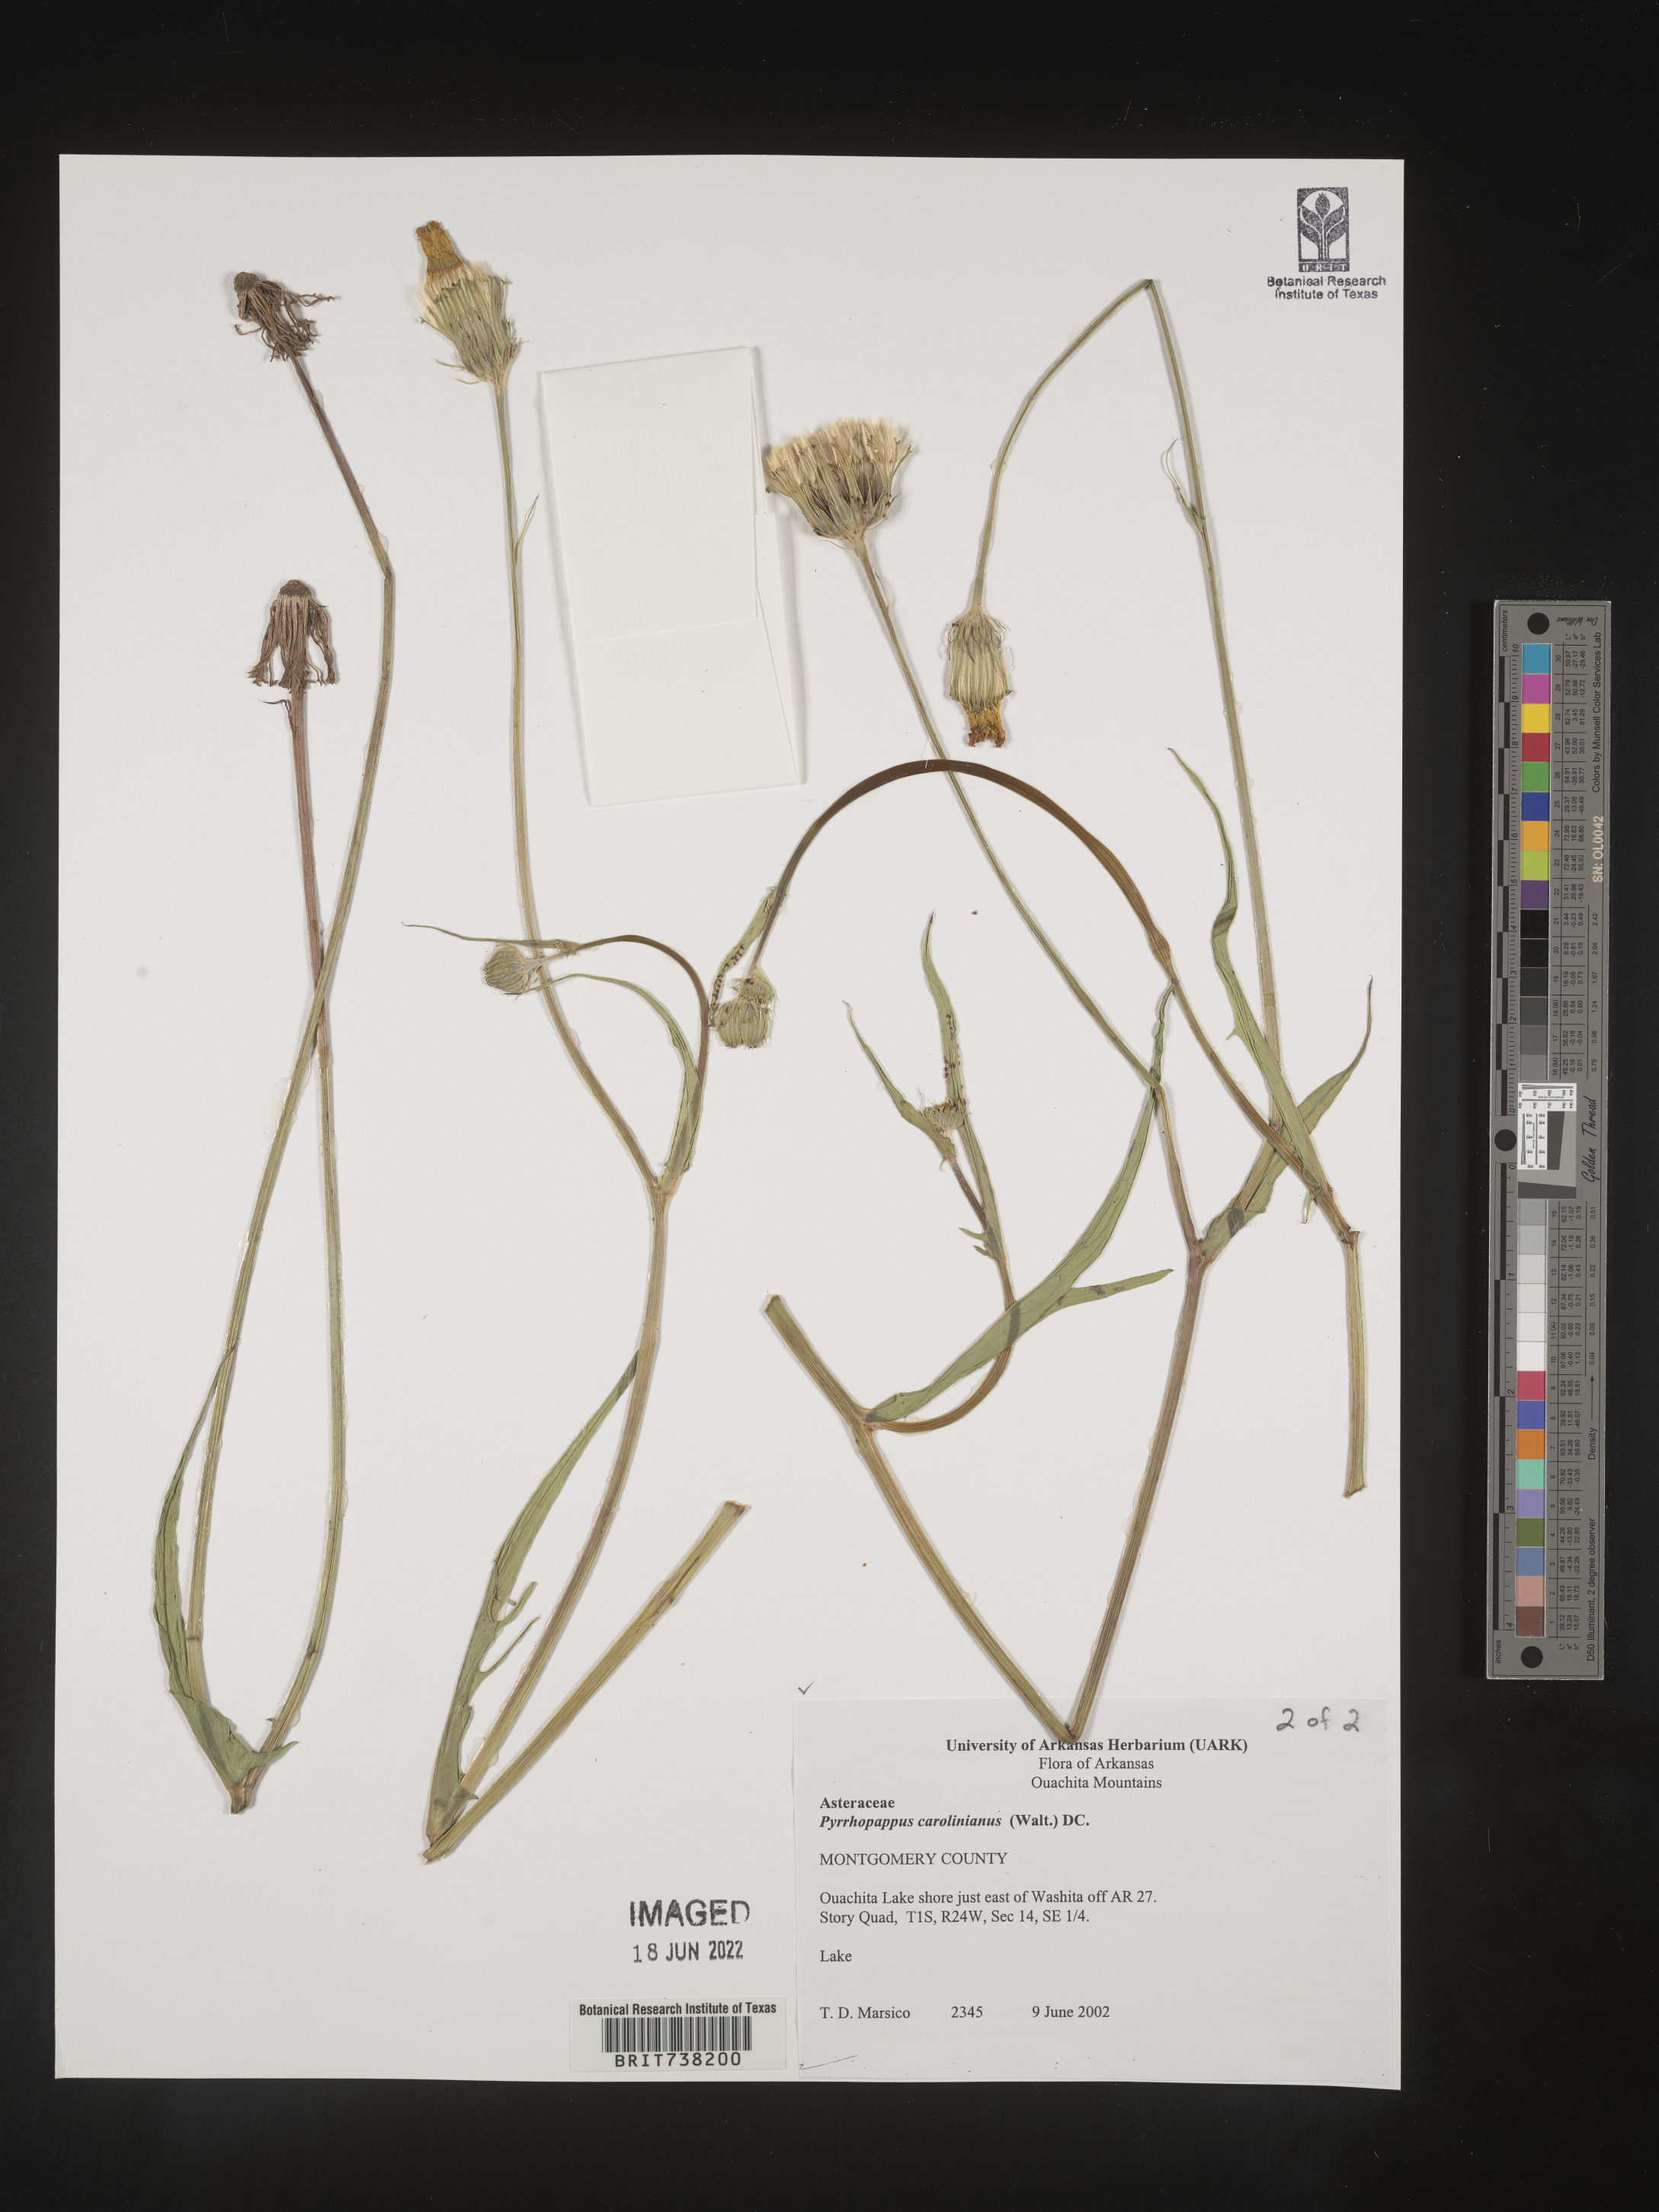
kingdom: Plantae
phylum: Tracheophyta
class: Magnoliopsida
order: Asterales
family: Asteraceae
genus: Pyrrhopappus
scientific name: Pyrrhopappus carolinianus
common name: Carolina desert-chicory
